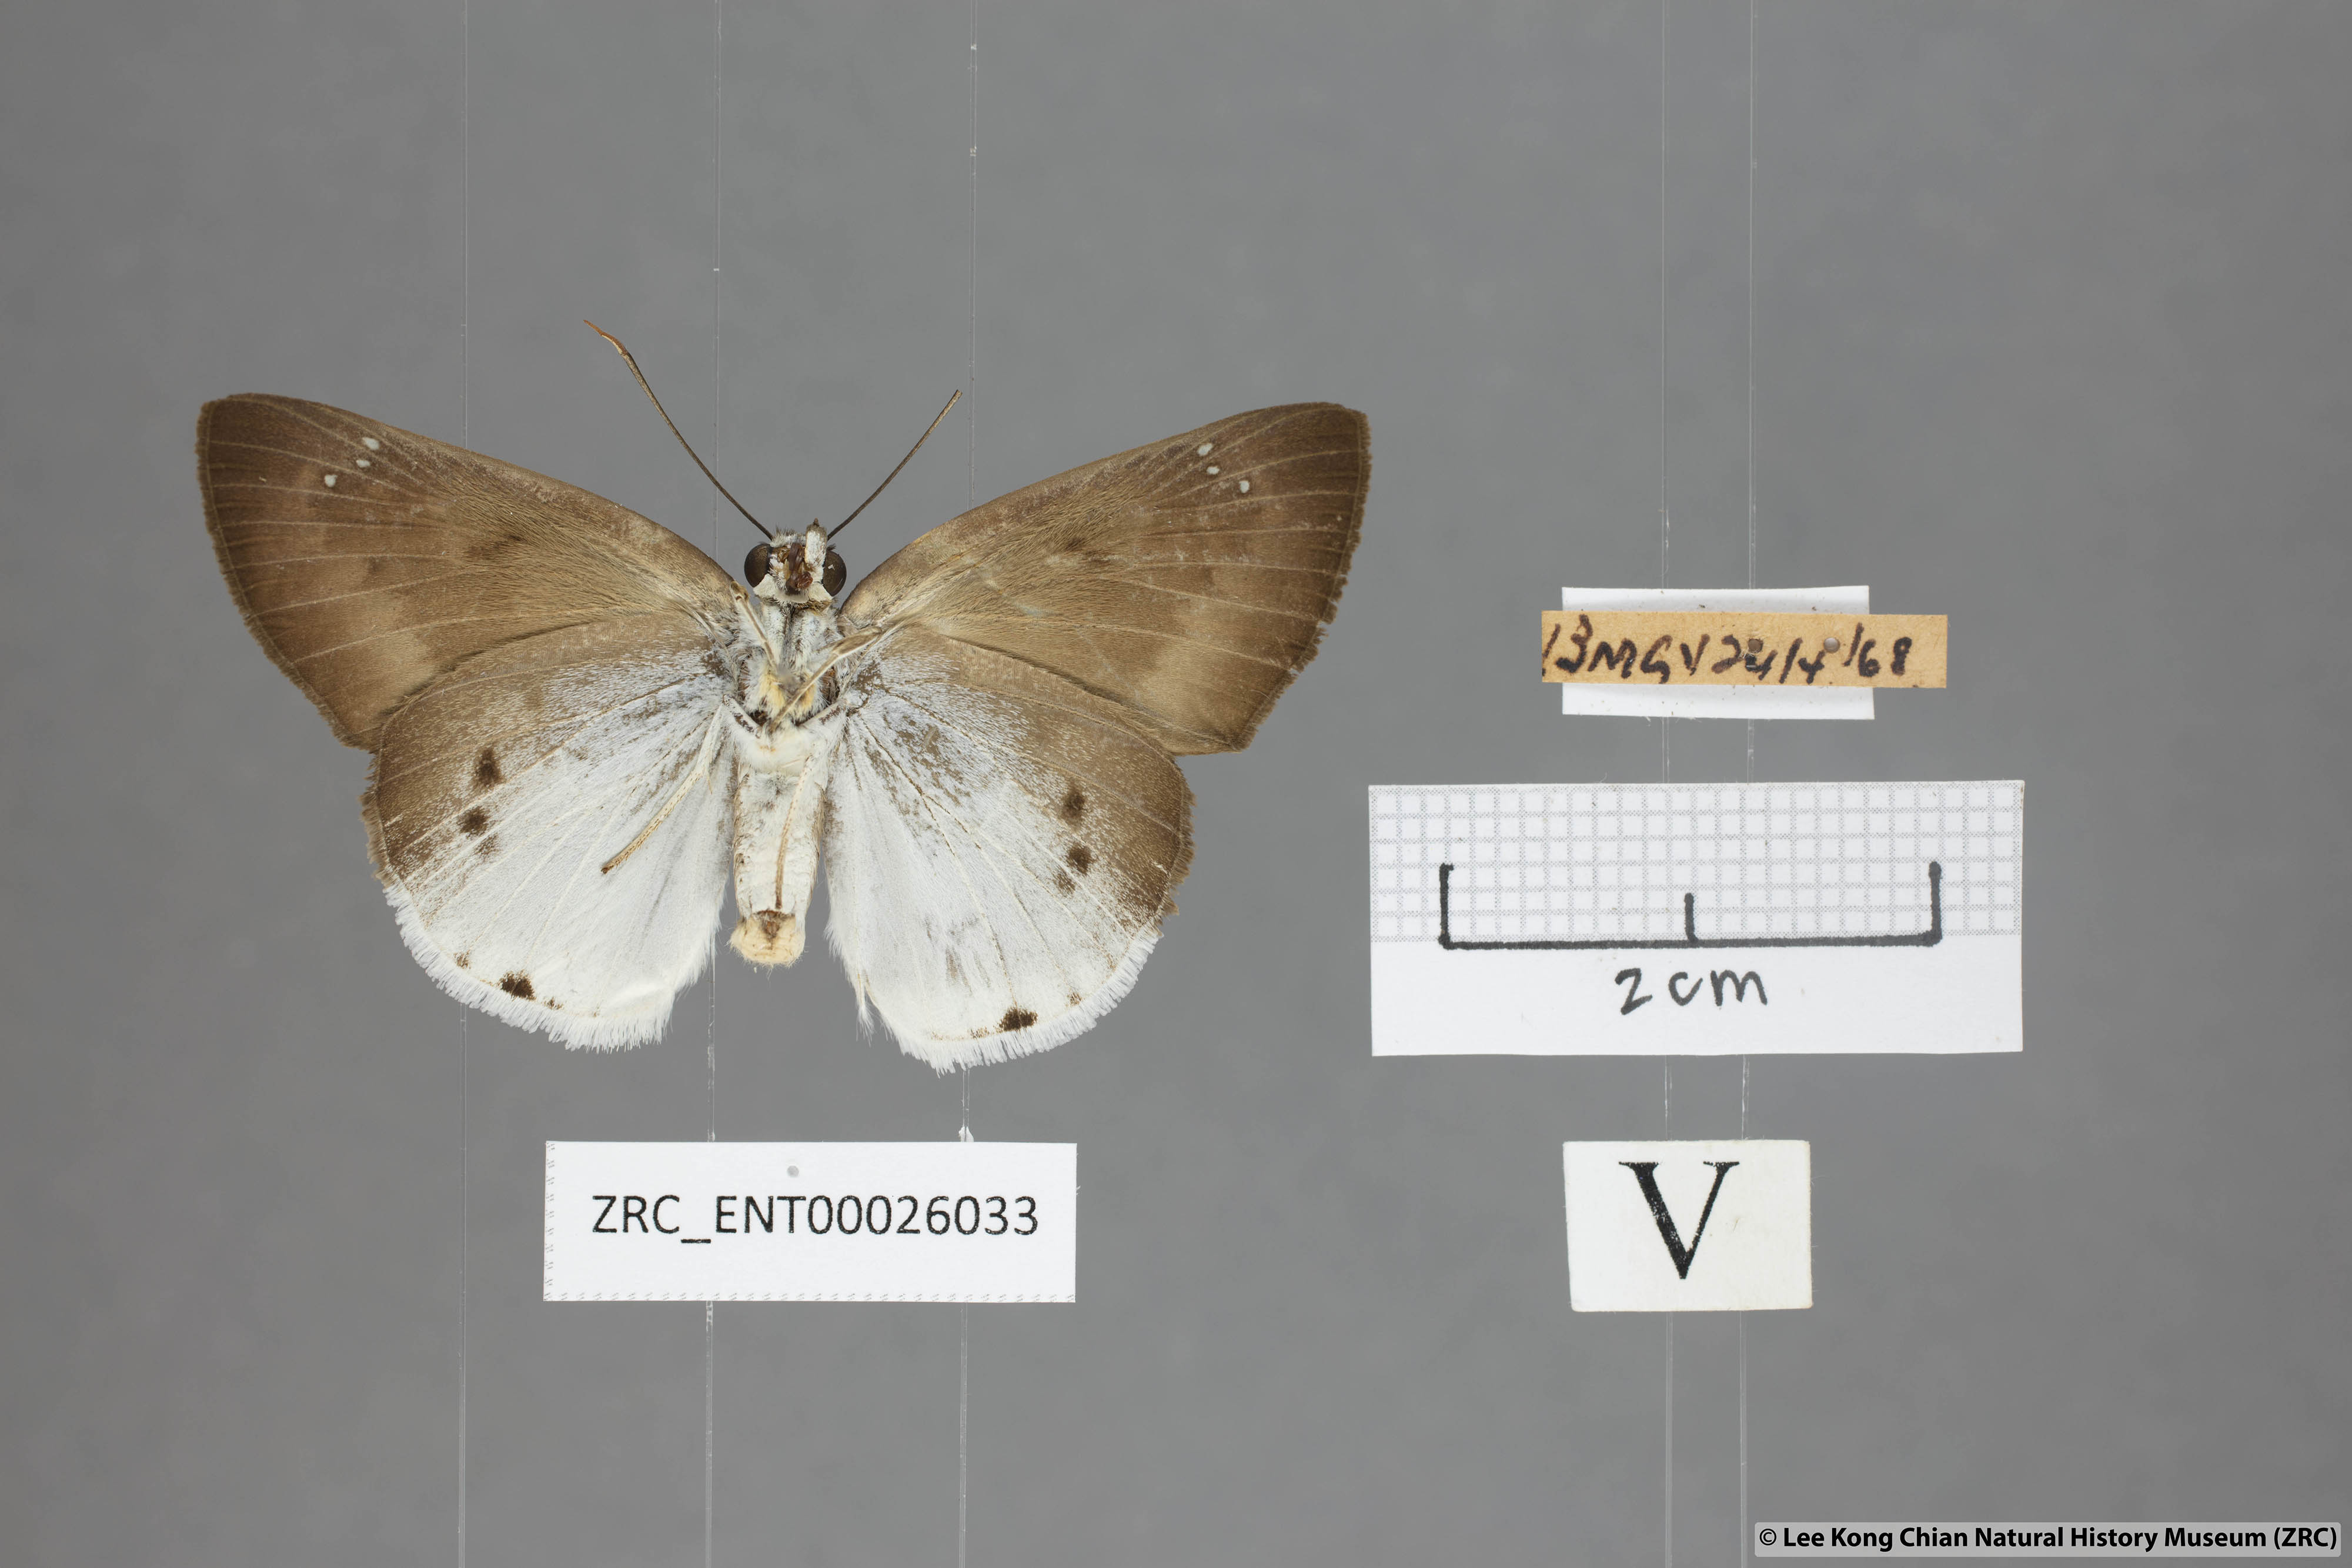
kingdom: Animalia
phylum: Arthropoda
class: Insecta
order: Lepidoptera
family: Hesperiidae
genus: Tagiades
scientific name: Tagiades parra
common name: Straight snow flat
